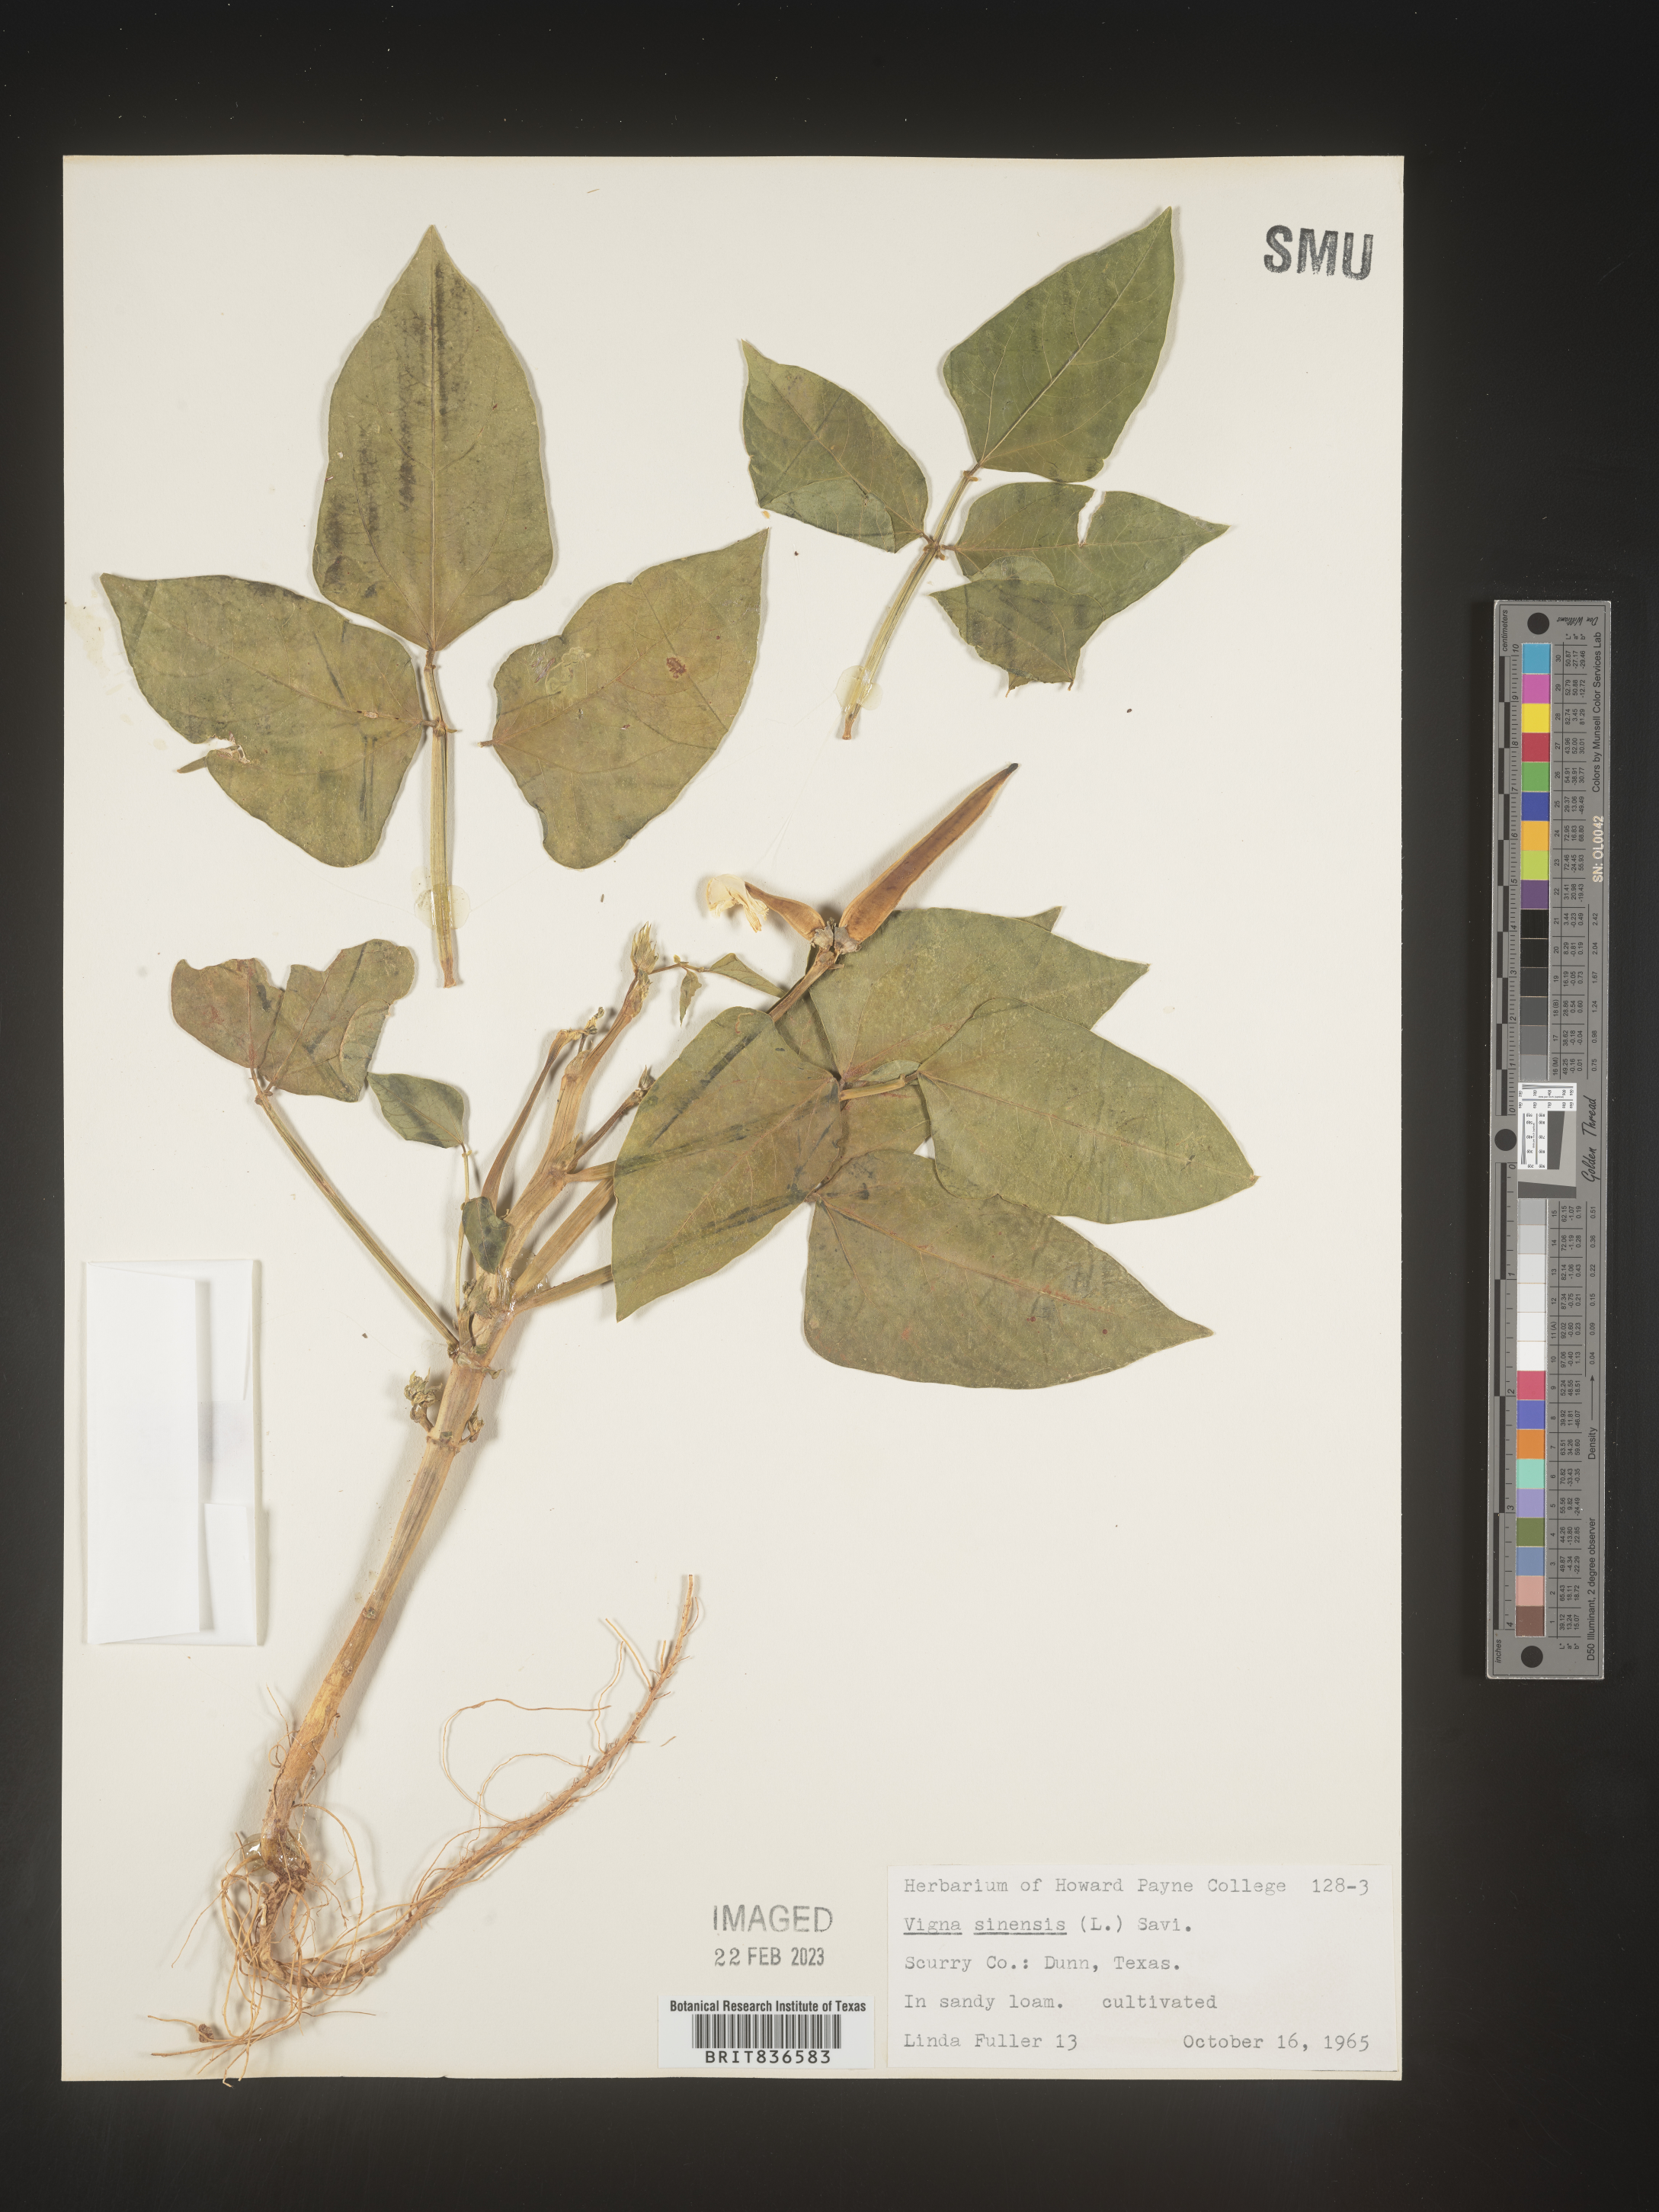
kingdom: Plantae
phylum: Tracheophyta
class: Magnoliopsida
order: Fabales
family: Fabaceae
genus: Vigna
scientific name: Vigna
